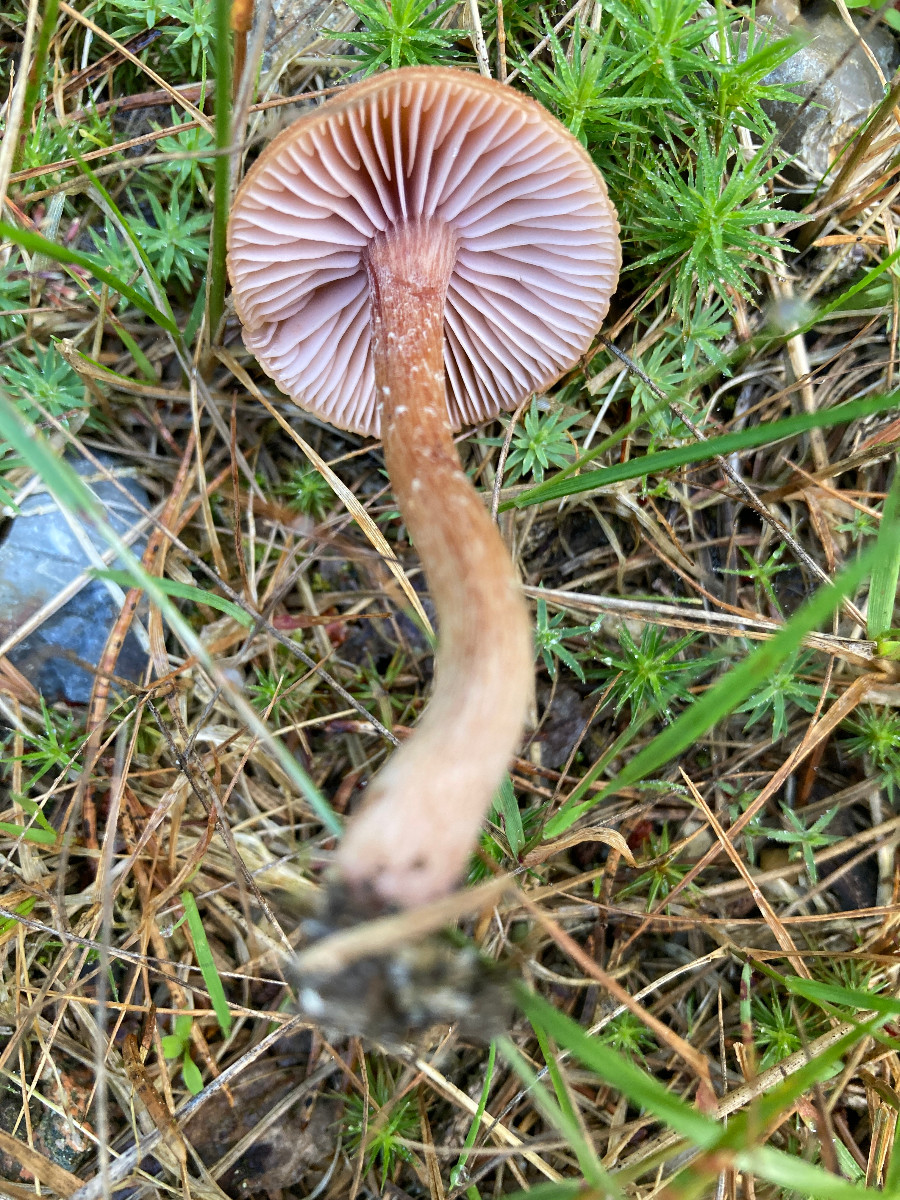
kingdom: Fungi
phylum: Basidiomycota
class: Agaricomycetes
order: Agaricales
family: Hydnangiaceae
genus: Laccaria
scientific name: Laccaria bicolor
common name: tvefarvet ametysthat
